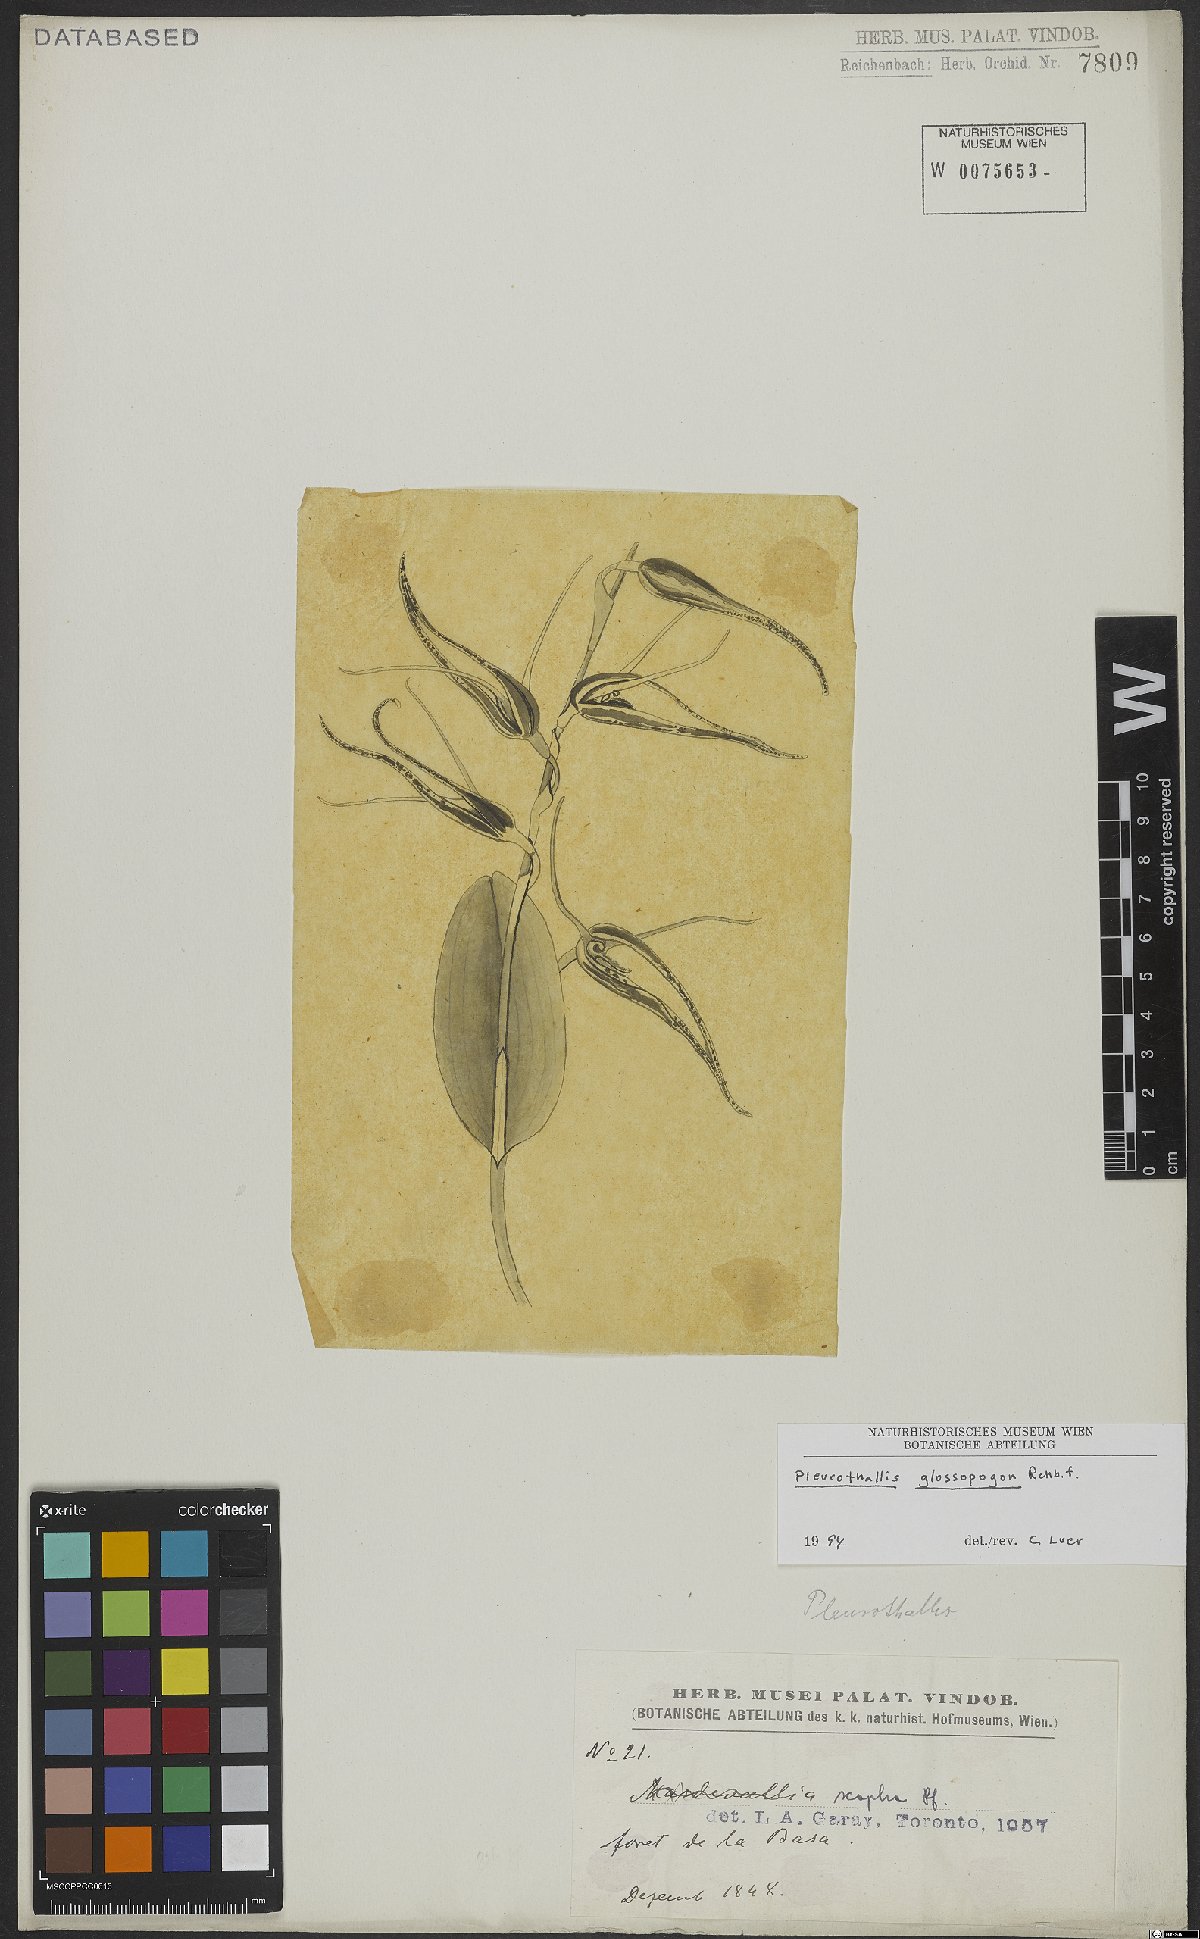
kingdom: Plantae
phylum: Tracheophyta
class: Liliopsida
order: Asparagales
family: Orchidaceae
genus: Pleurothallis
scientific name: Pleurothallis glossopogon
